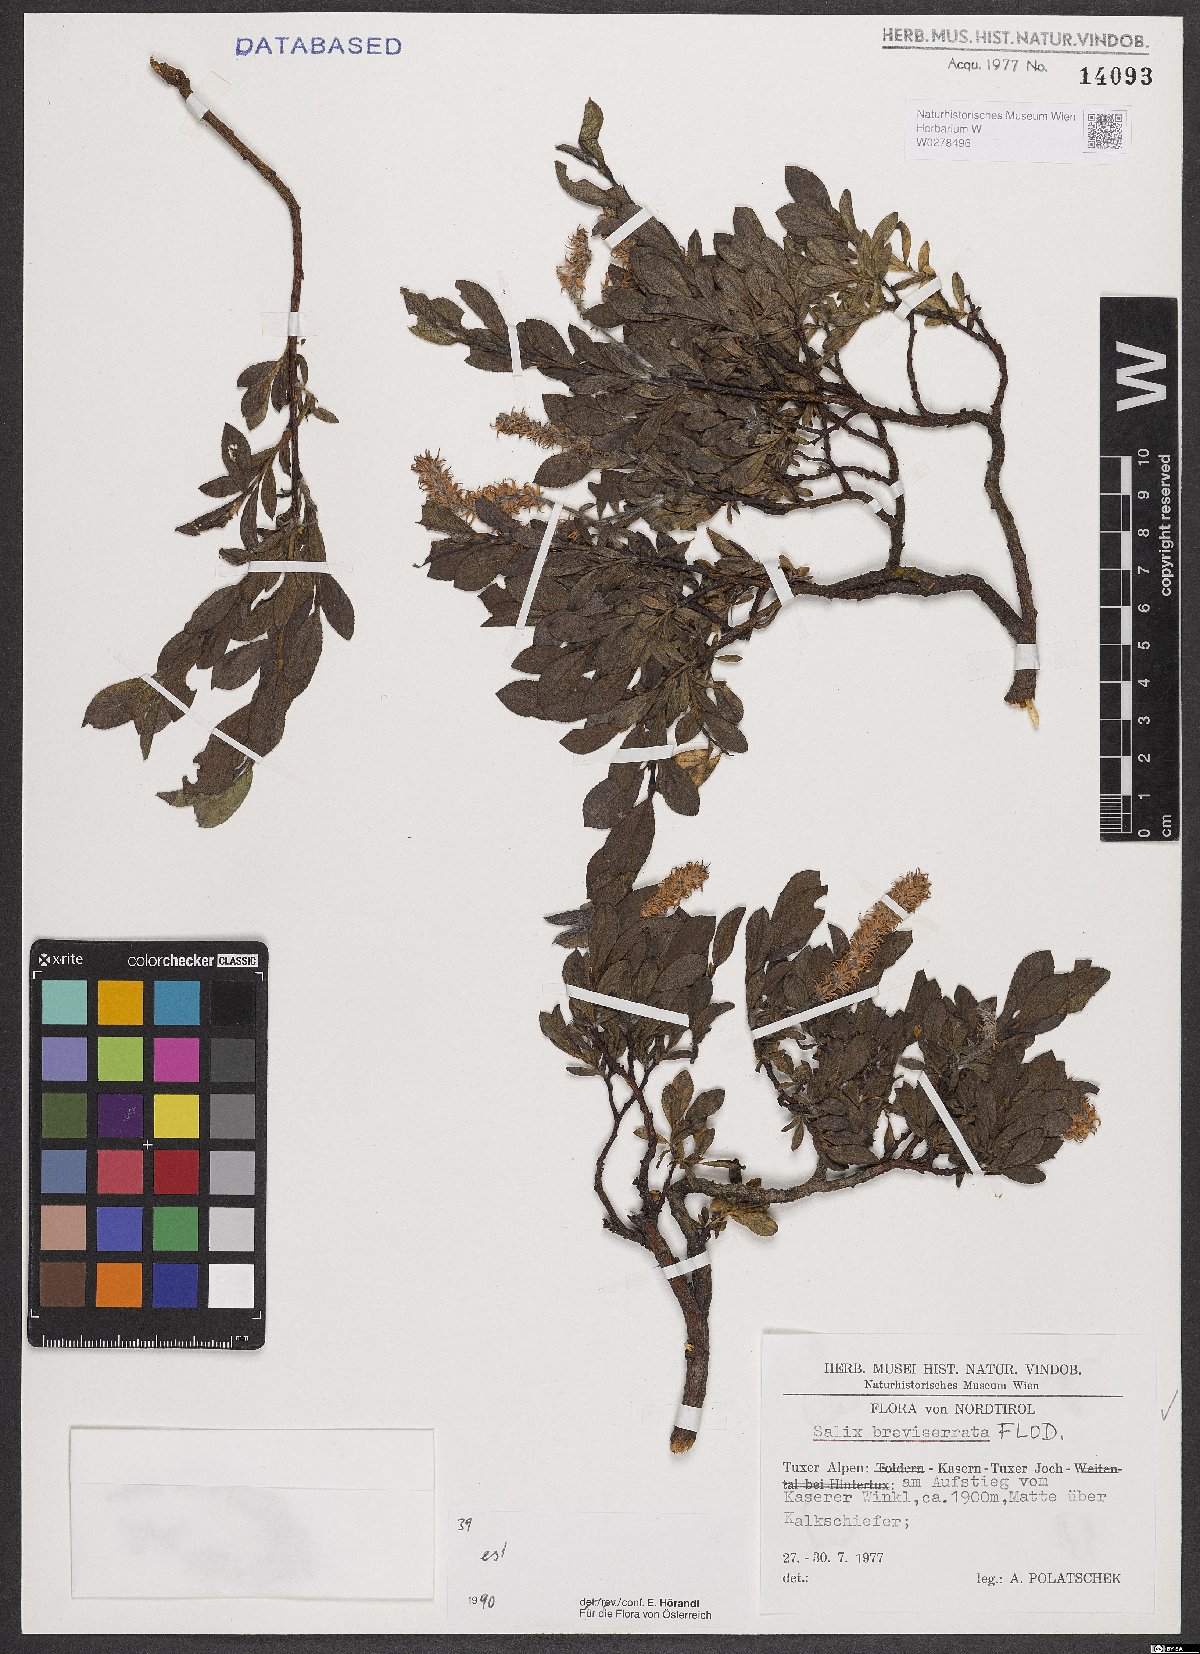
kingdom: Plantae
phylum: Tracheophyta
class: Magnoliopsida
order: Malpighiales
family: Salicaceae
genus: Salix
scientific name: Salix breviserrata
